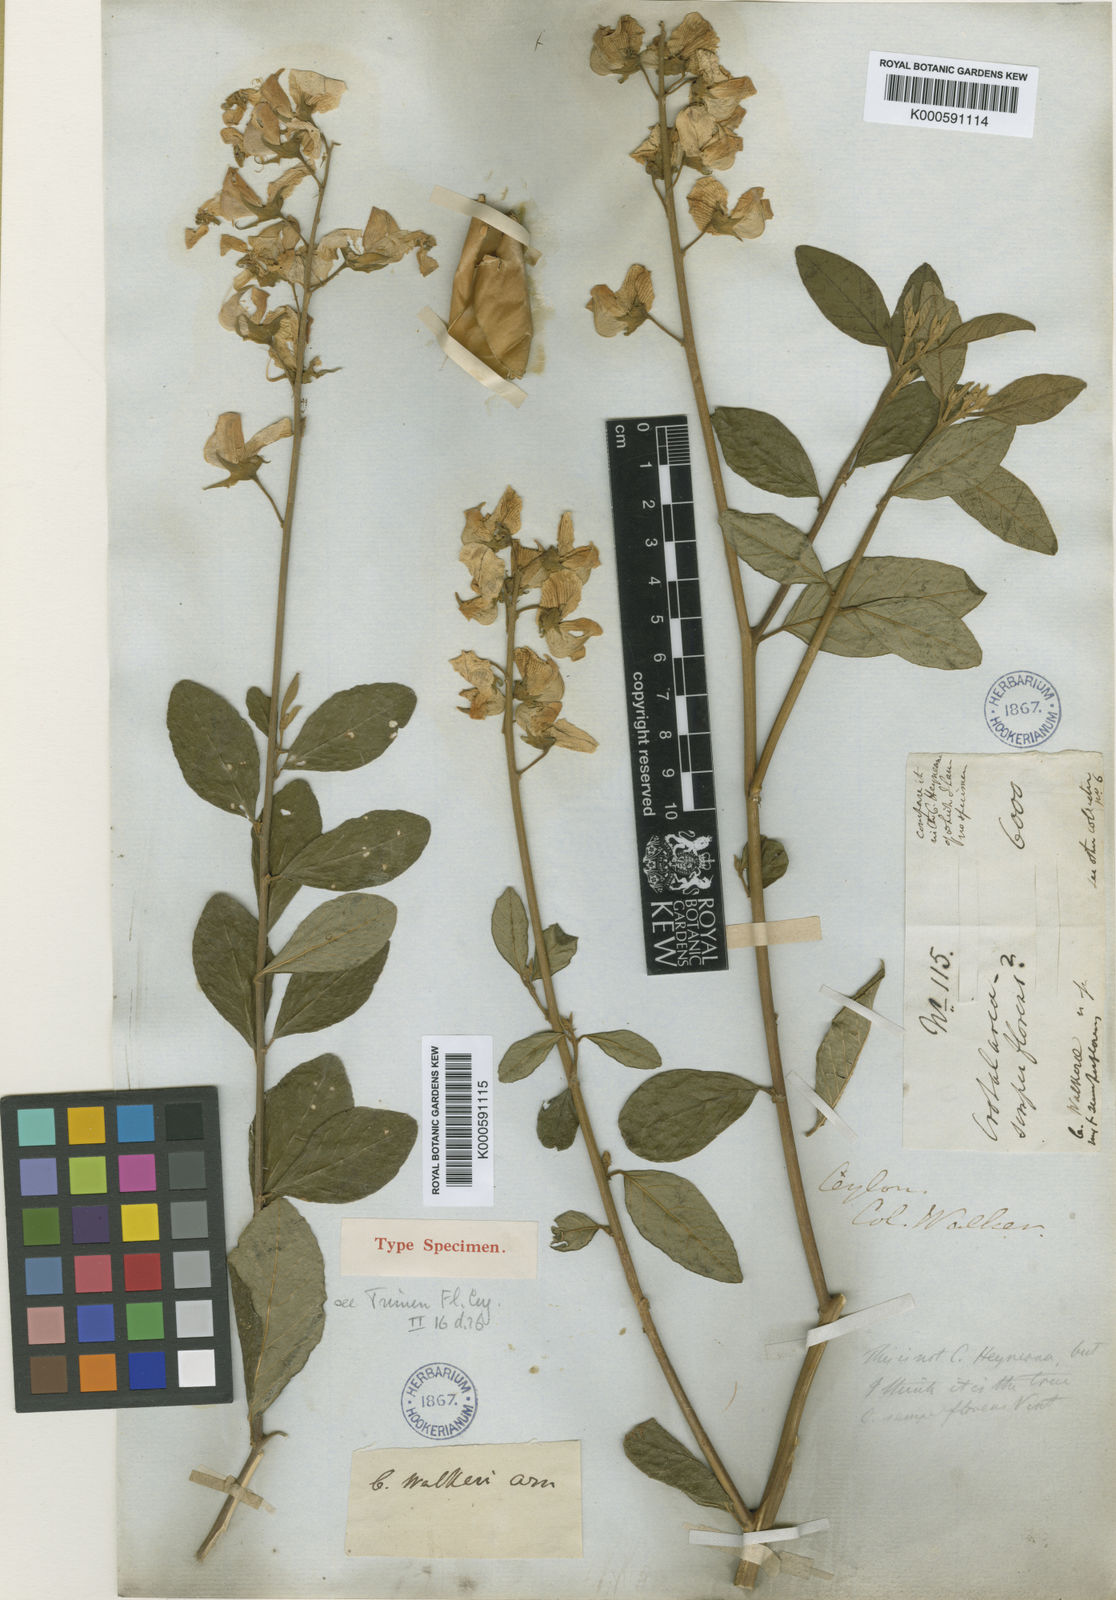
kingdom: Plantae
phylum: Tracheophyta
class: Magnoliopsida
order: Fabales
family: Fabaceae
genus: Crotalaria
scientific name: Crotalaria semperflorens
